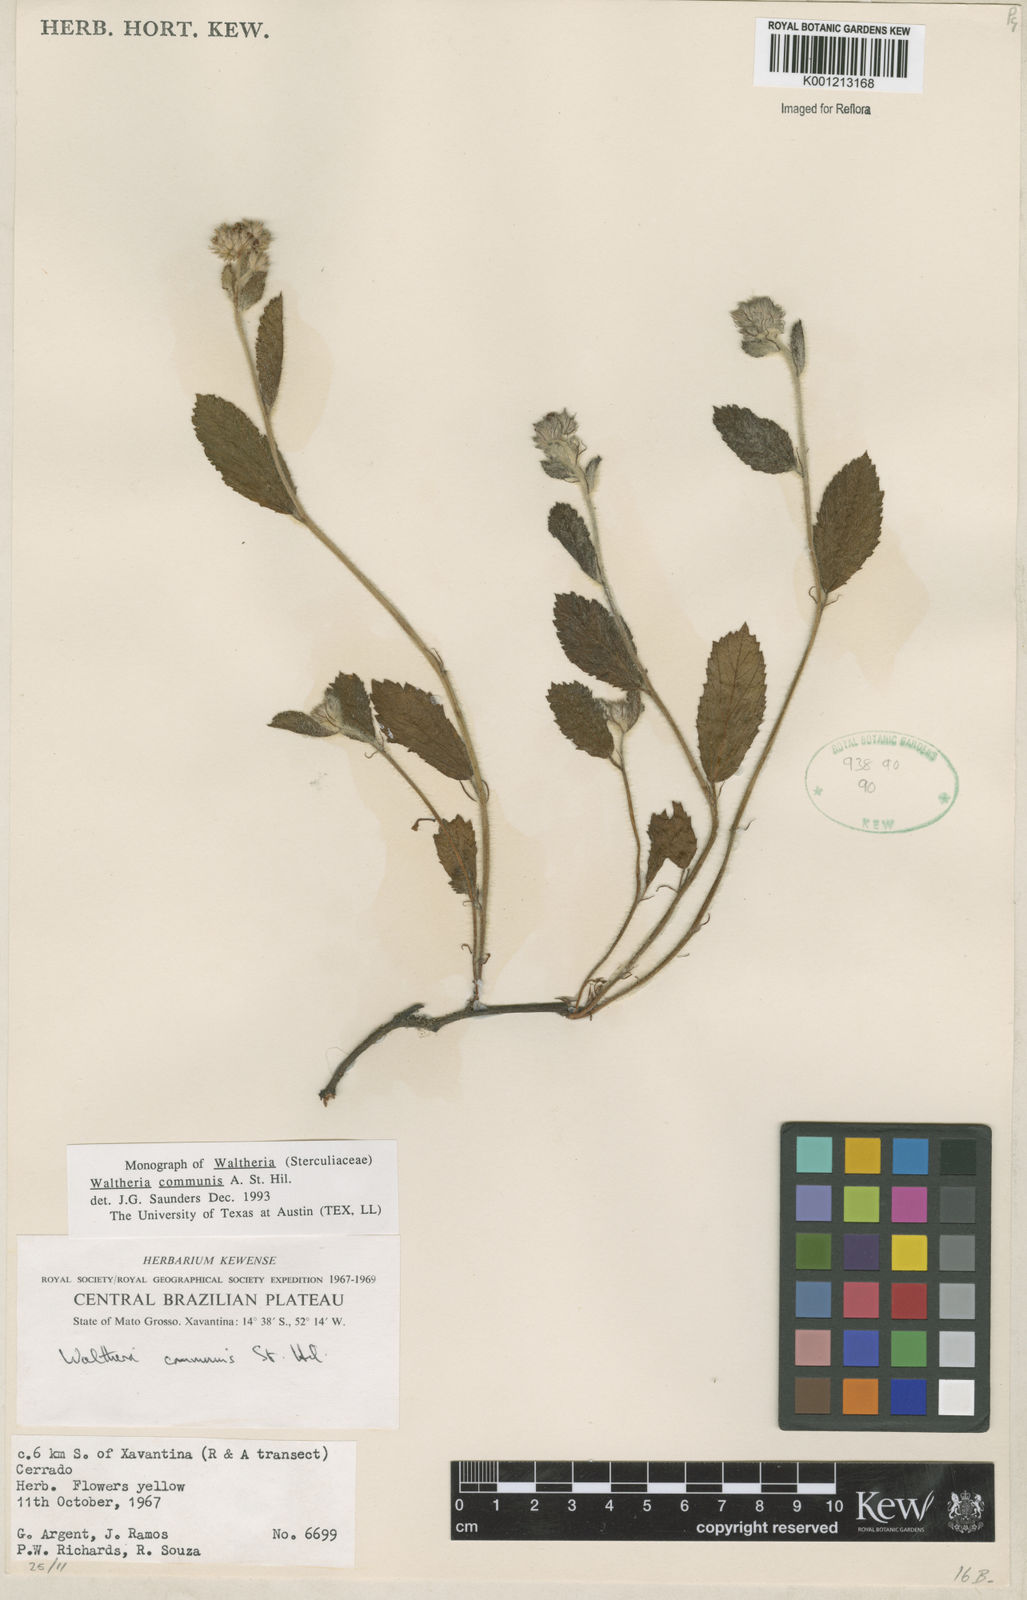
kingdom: Plantae
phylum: Tracheophyta
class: Magnoliopsida
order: Malvales
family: Malvaceae
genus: Waltheria
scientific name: Waltheria communis
